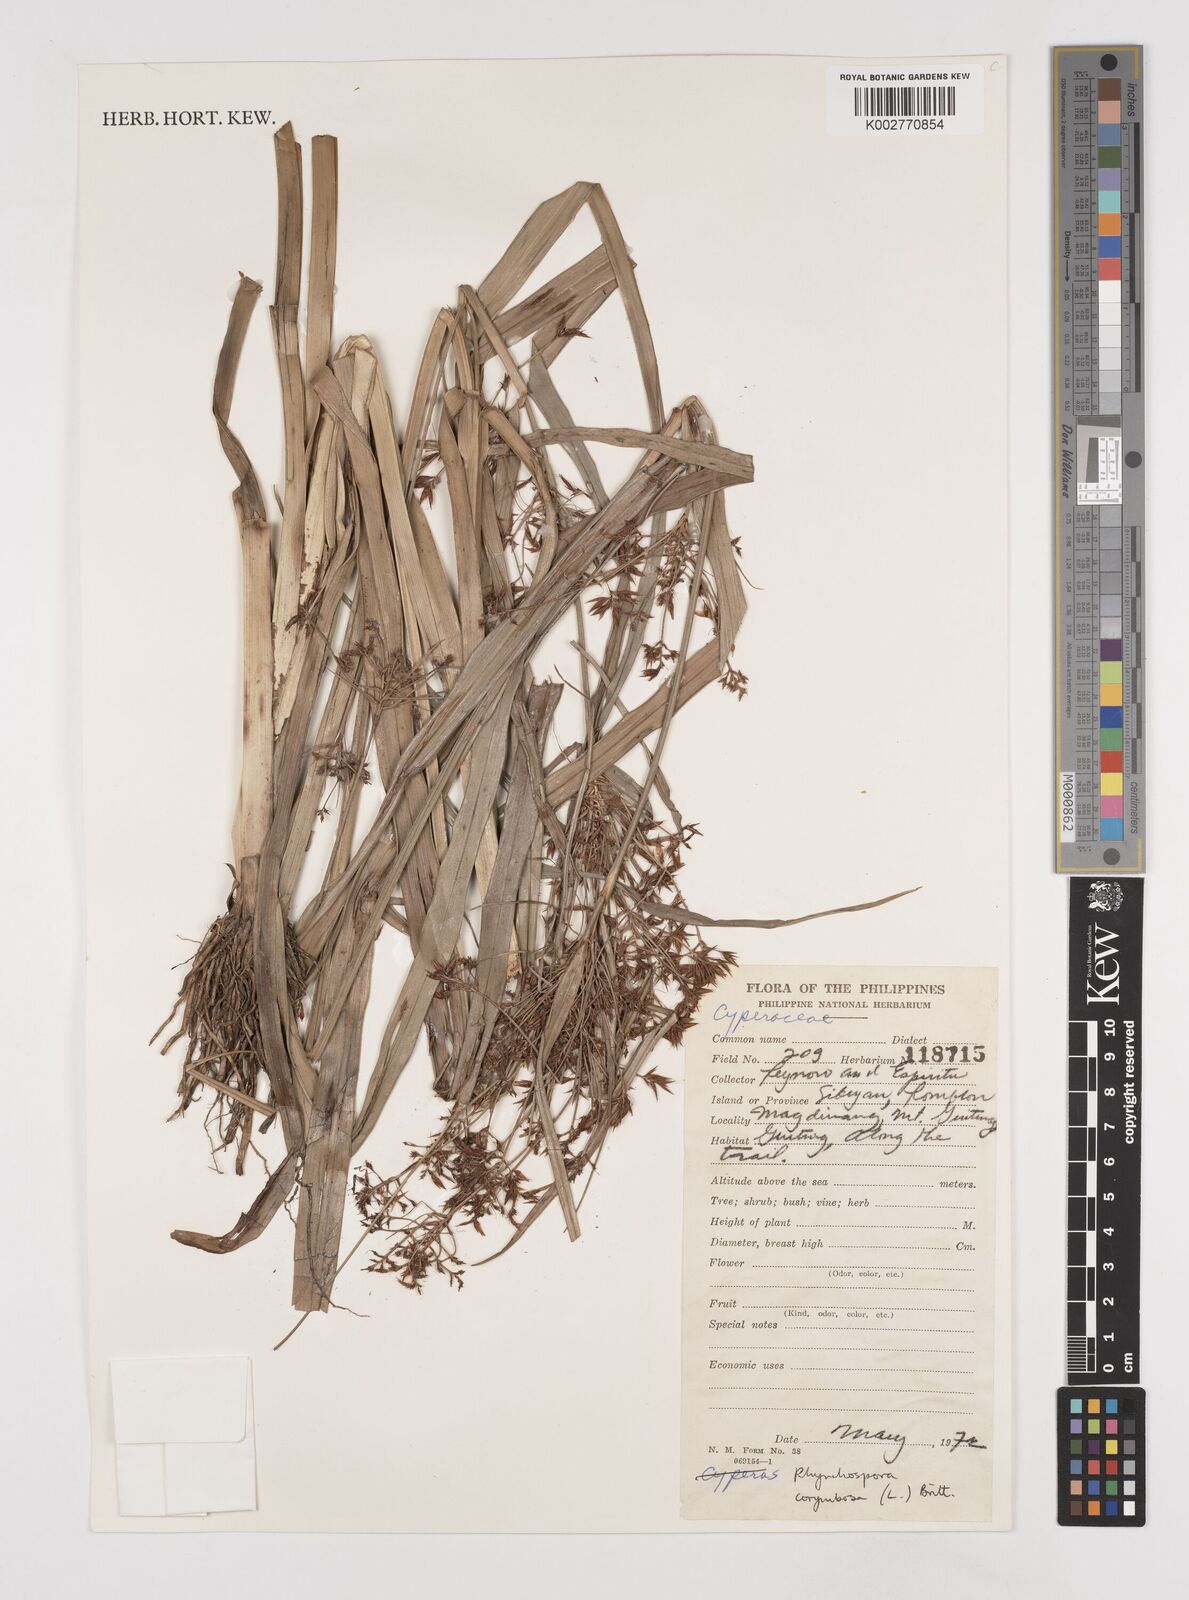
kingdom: Plantae
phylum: Tracheophyta
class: Liliopsida
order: Poales
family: Cyperaceae
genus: Rhynchospora
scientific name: Rhynchospora corymbosa
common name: Golden beak sedge
